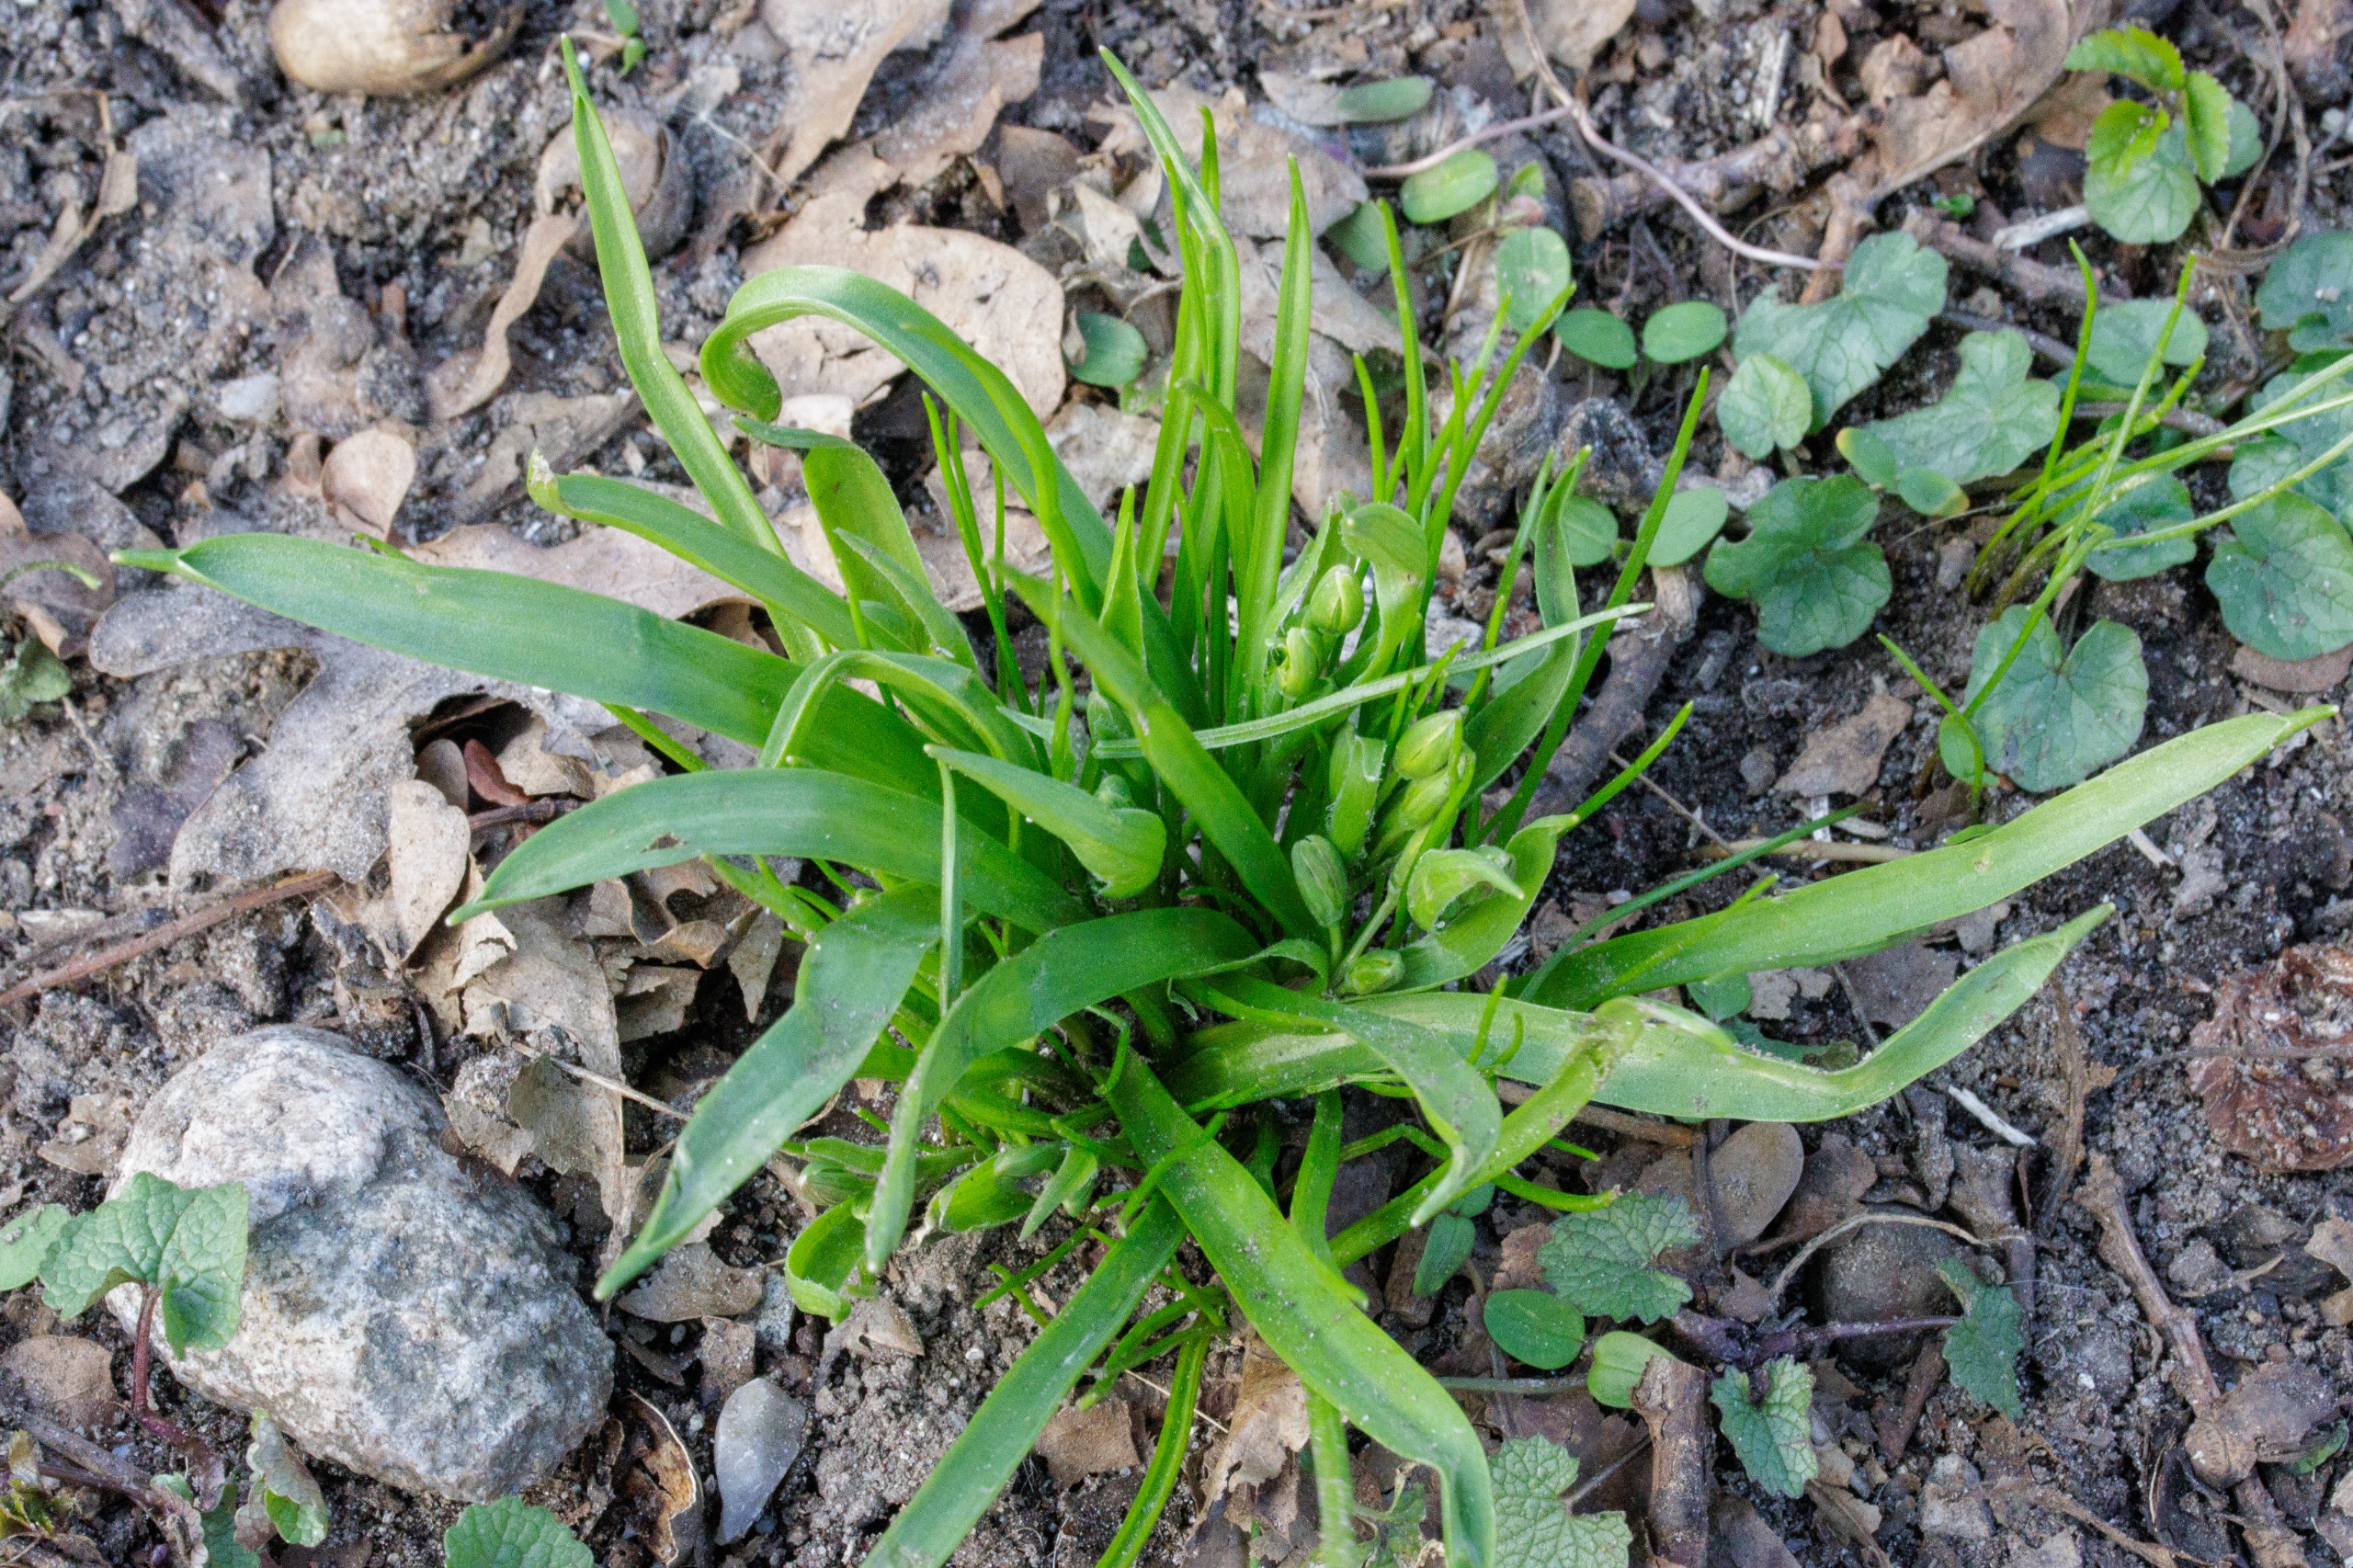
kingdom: Plantae
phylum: Tracheophyta
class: Liliopsida
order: Liliales
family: Liliaceae
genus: Gagea
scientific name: Gagea lutea
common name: Almindelig guldstjerne
